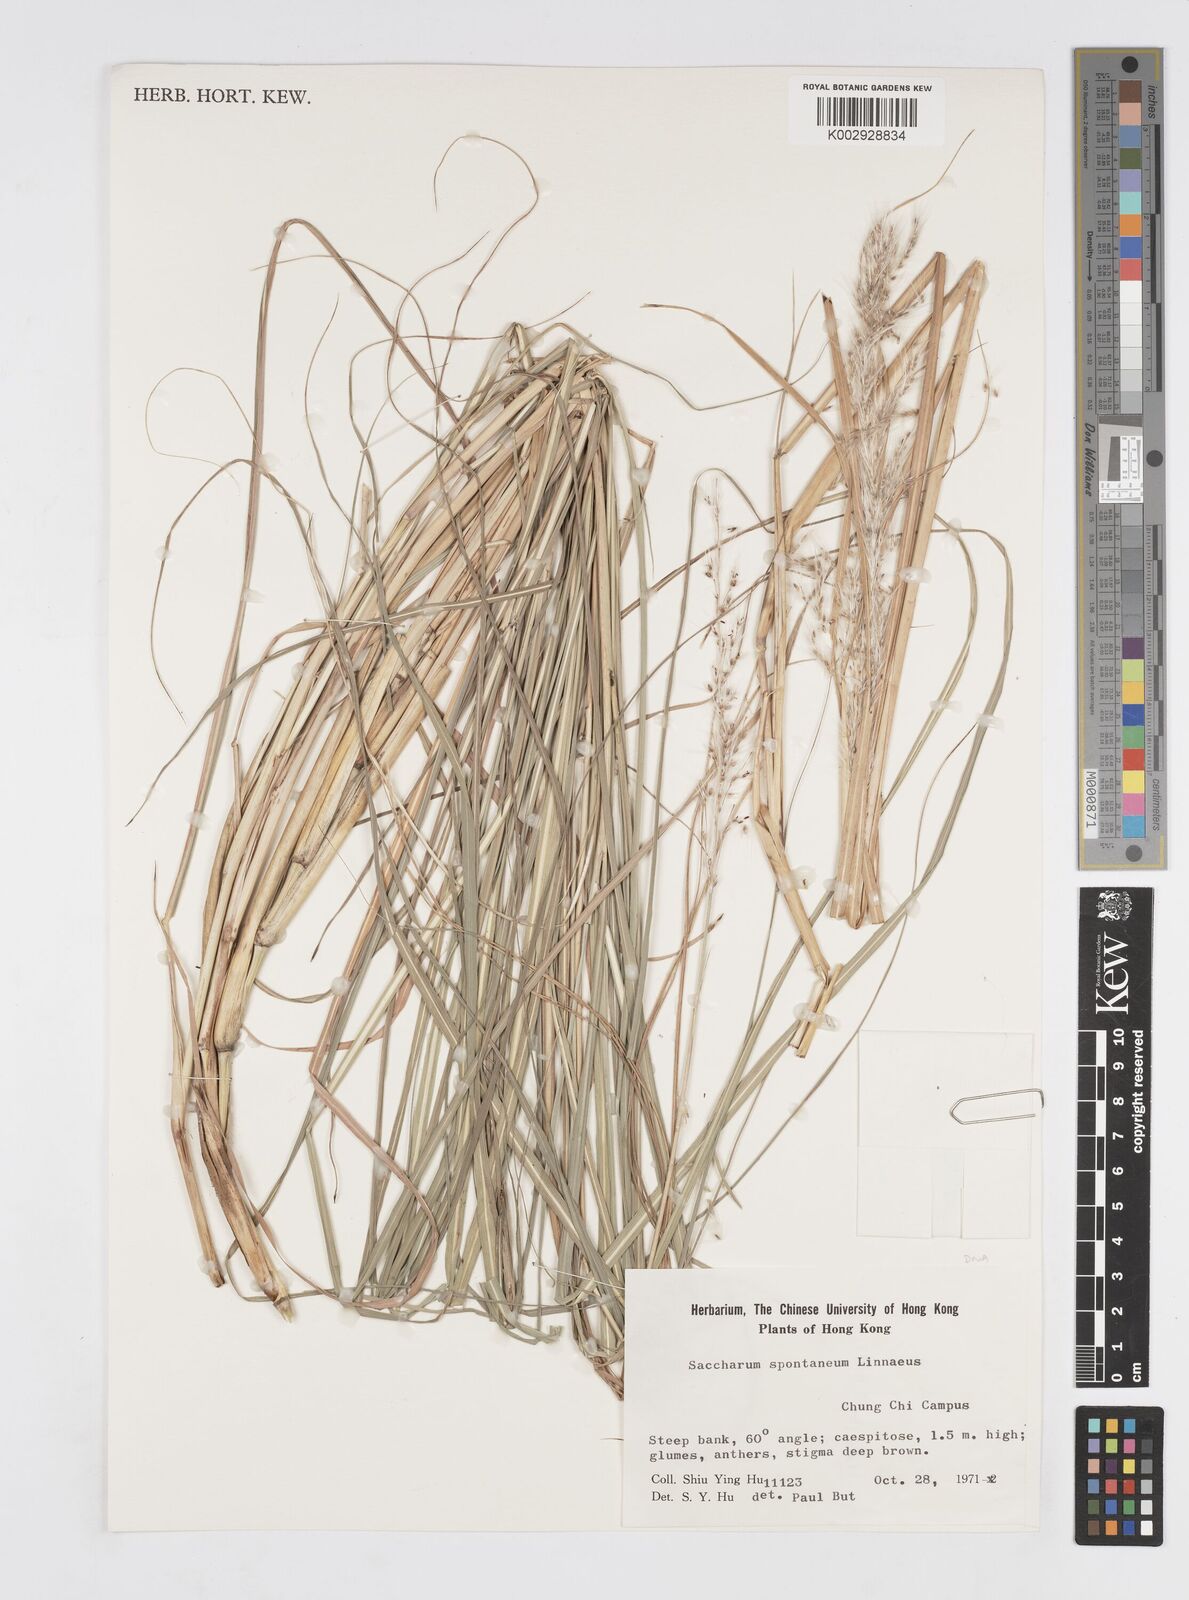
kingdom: Plantae
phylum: Tracheophyta
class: Liliopsida
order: Poales
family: Poaceae
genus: Saccharum
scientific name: Saccharum spontaneum
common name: Wild sugarcane
